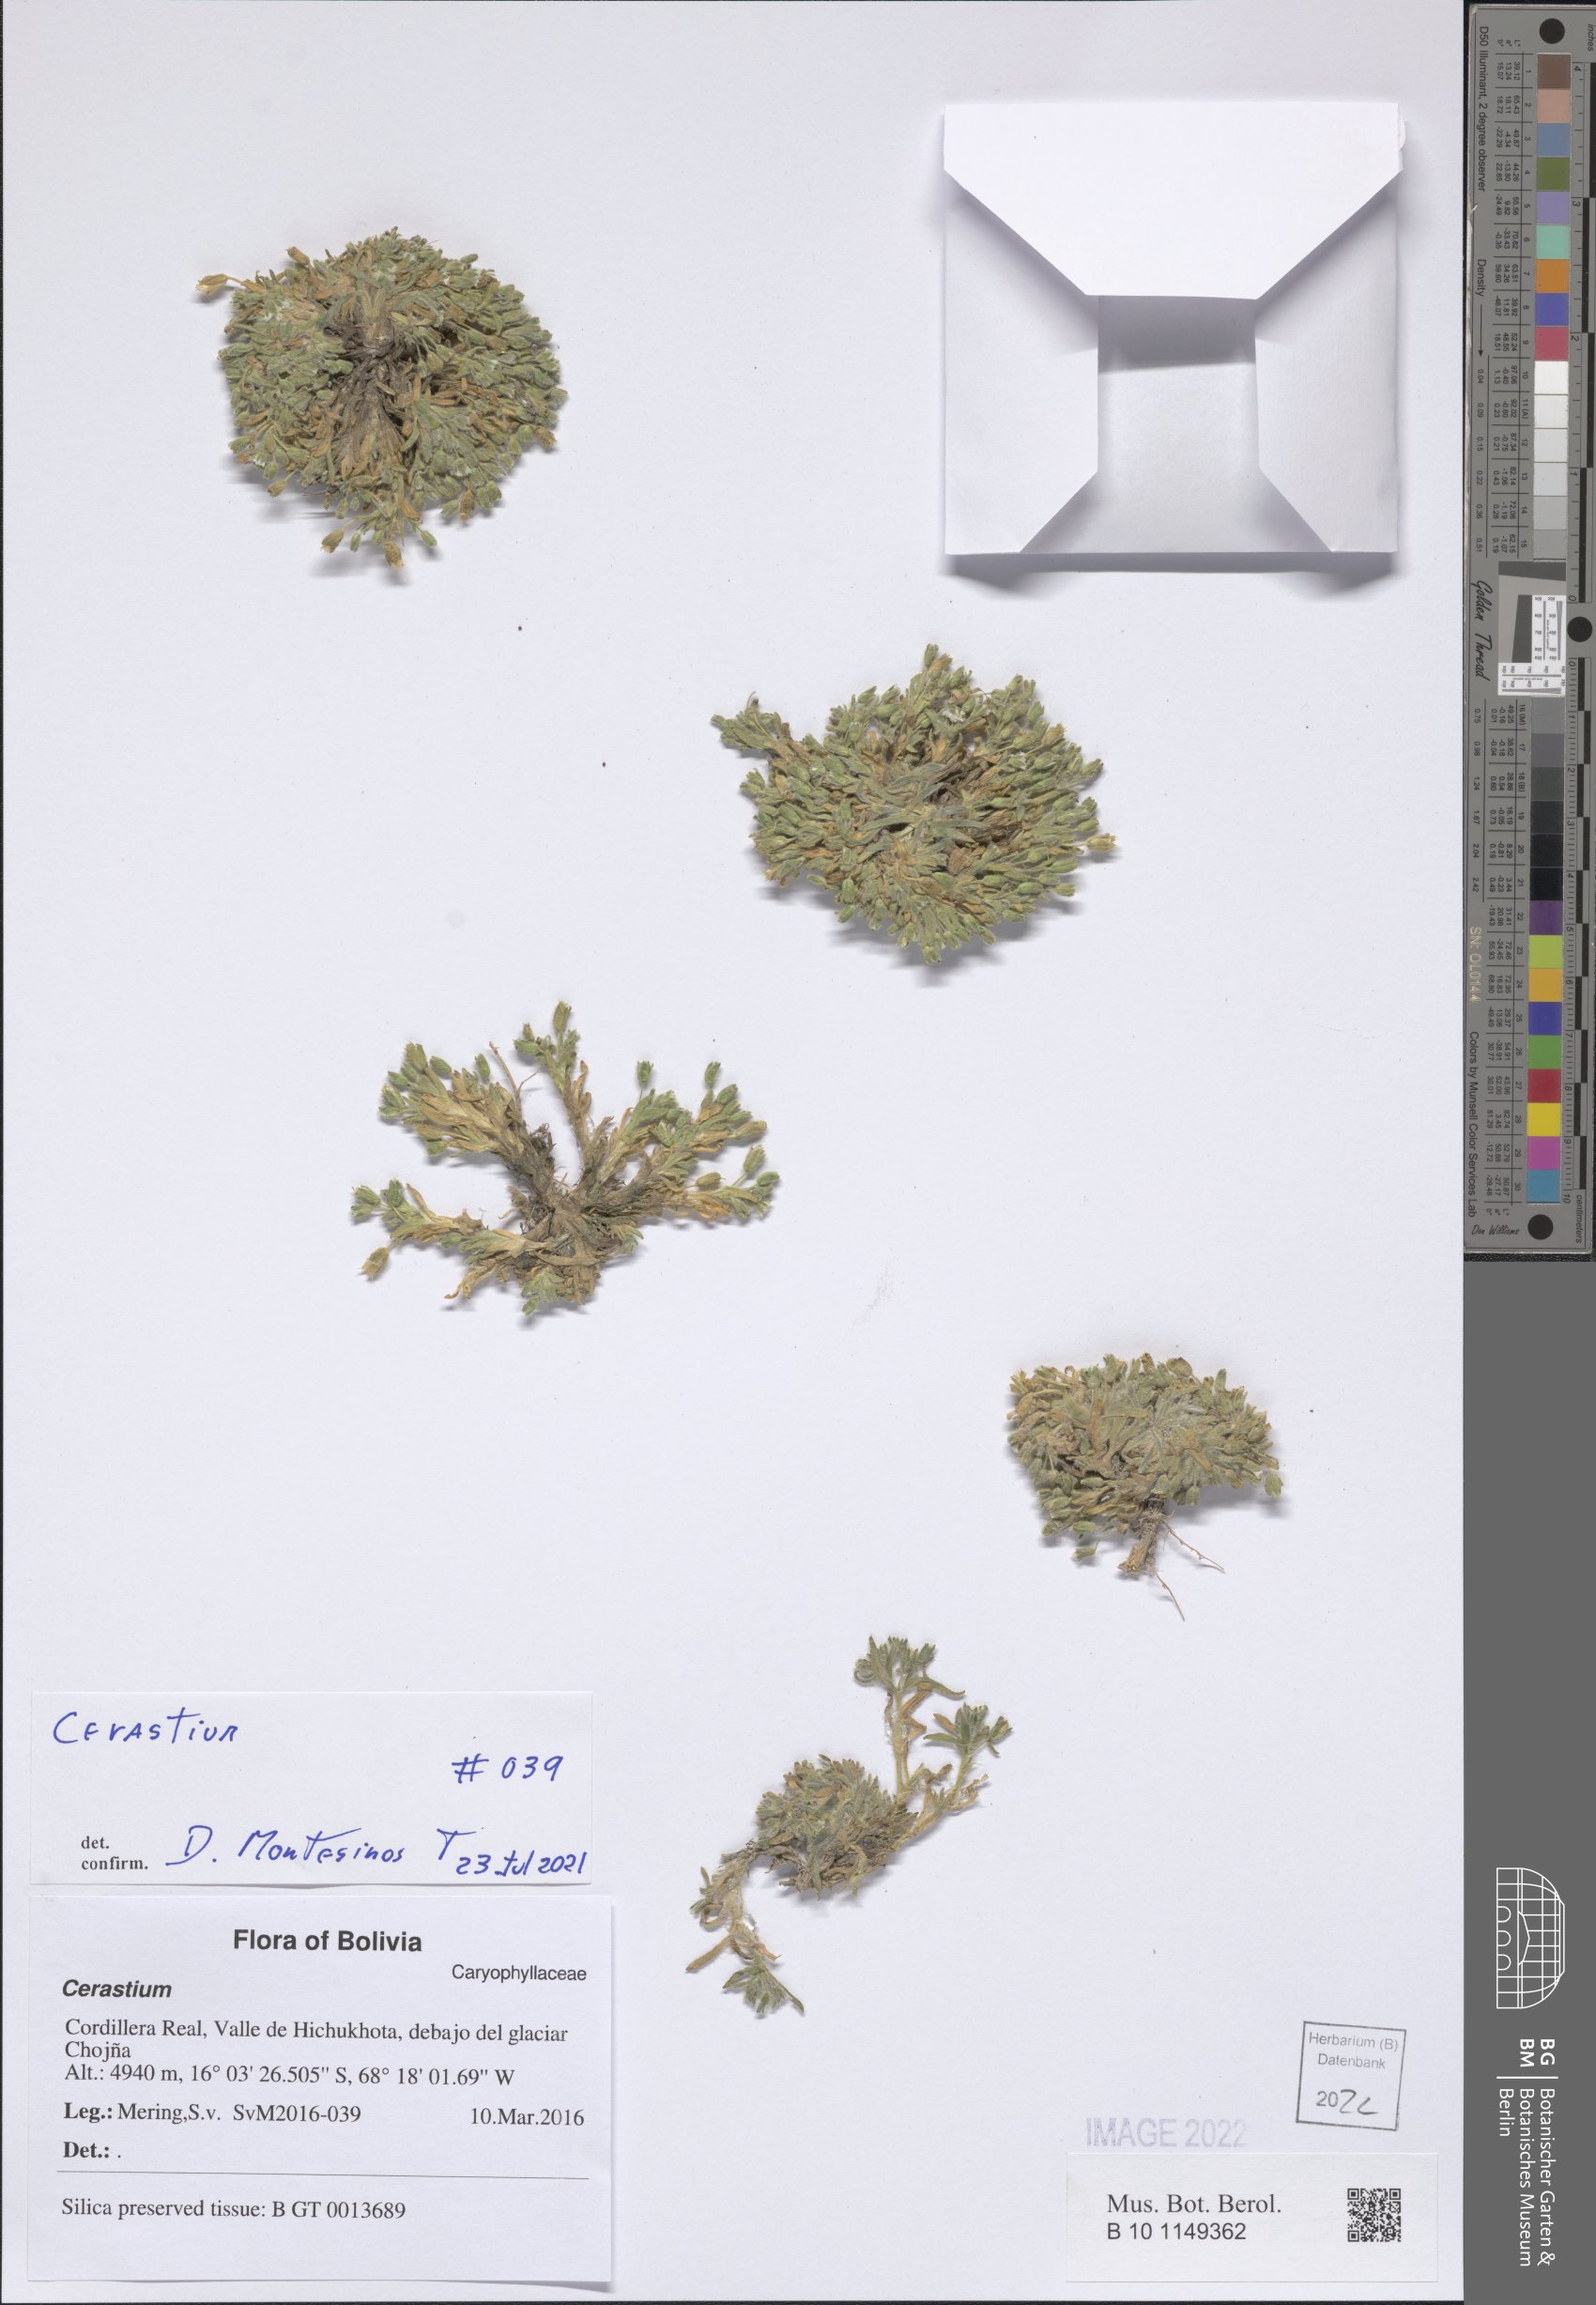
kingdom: Plantae
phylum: Tracheophyta
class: Magnoliopsida
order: Caryophyllales
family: Caryophyllaceae
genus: Cerastium
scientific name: Cerastium
